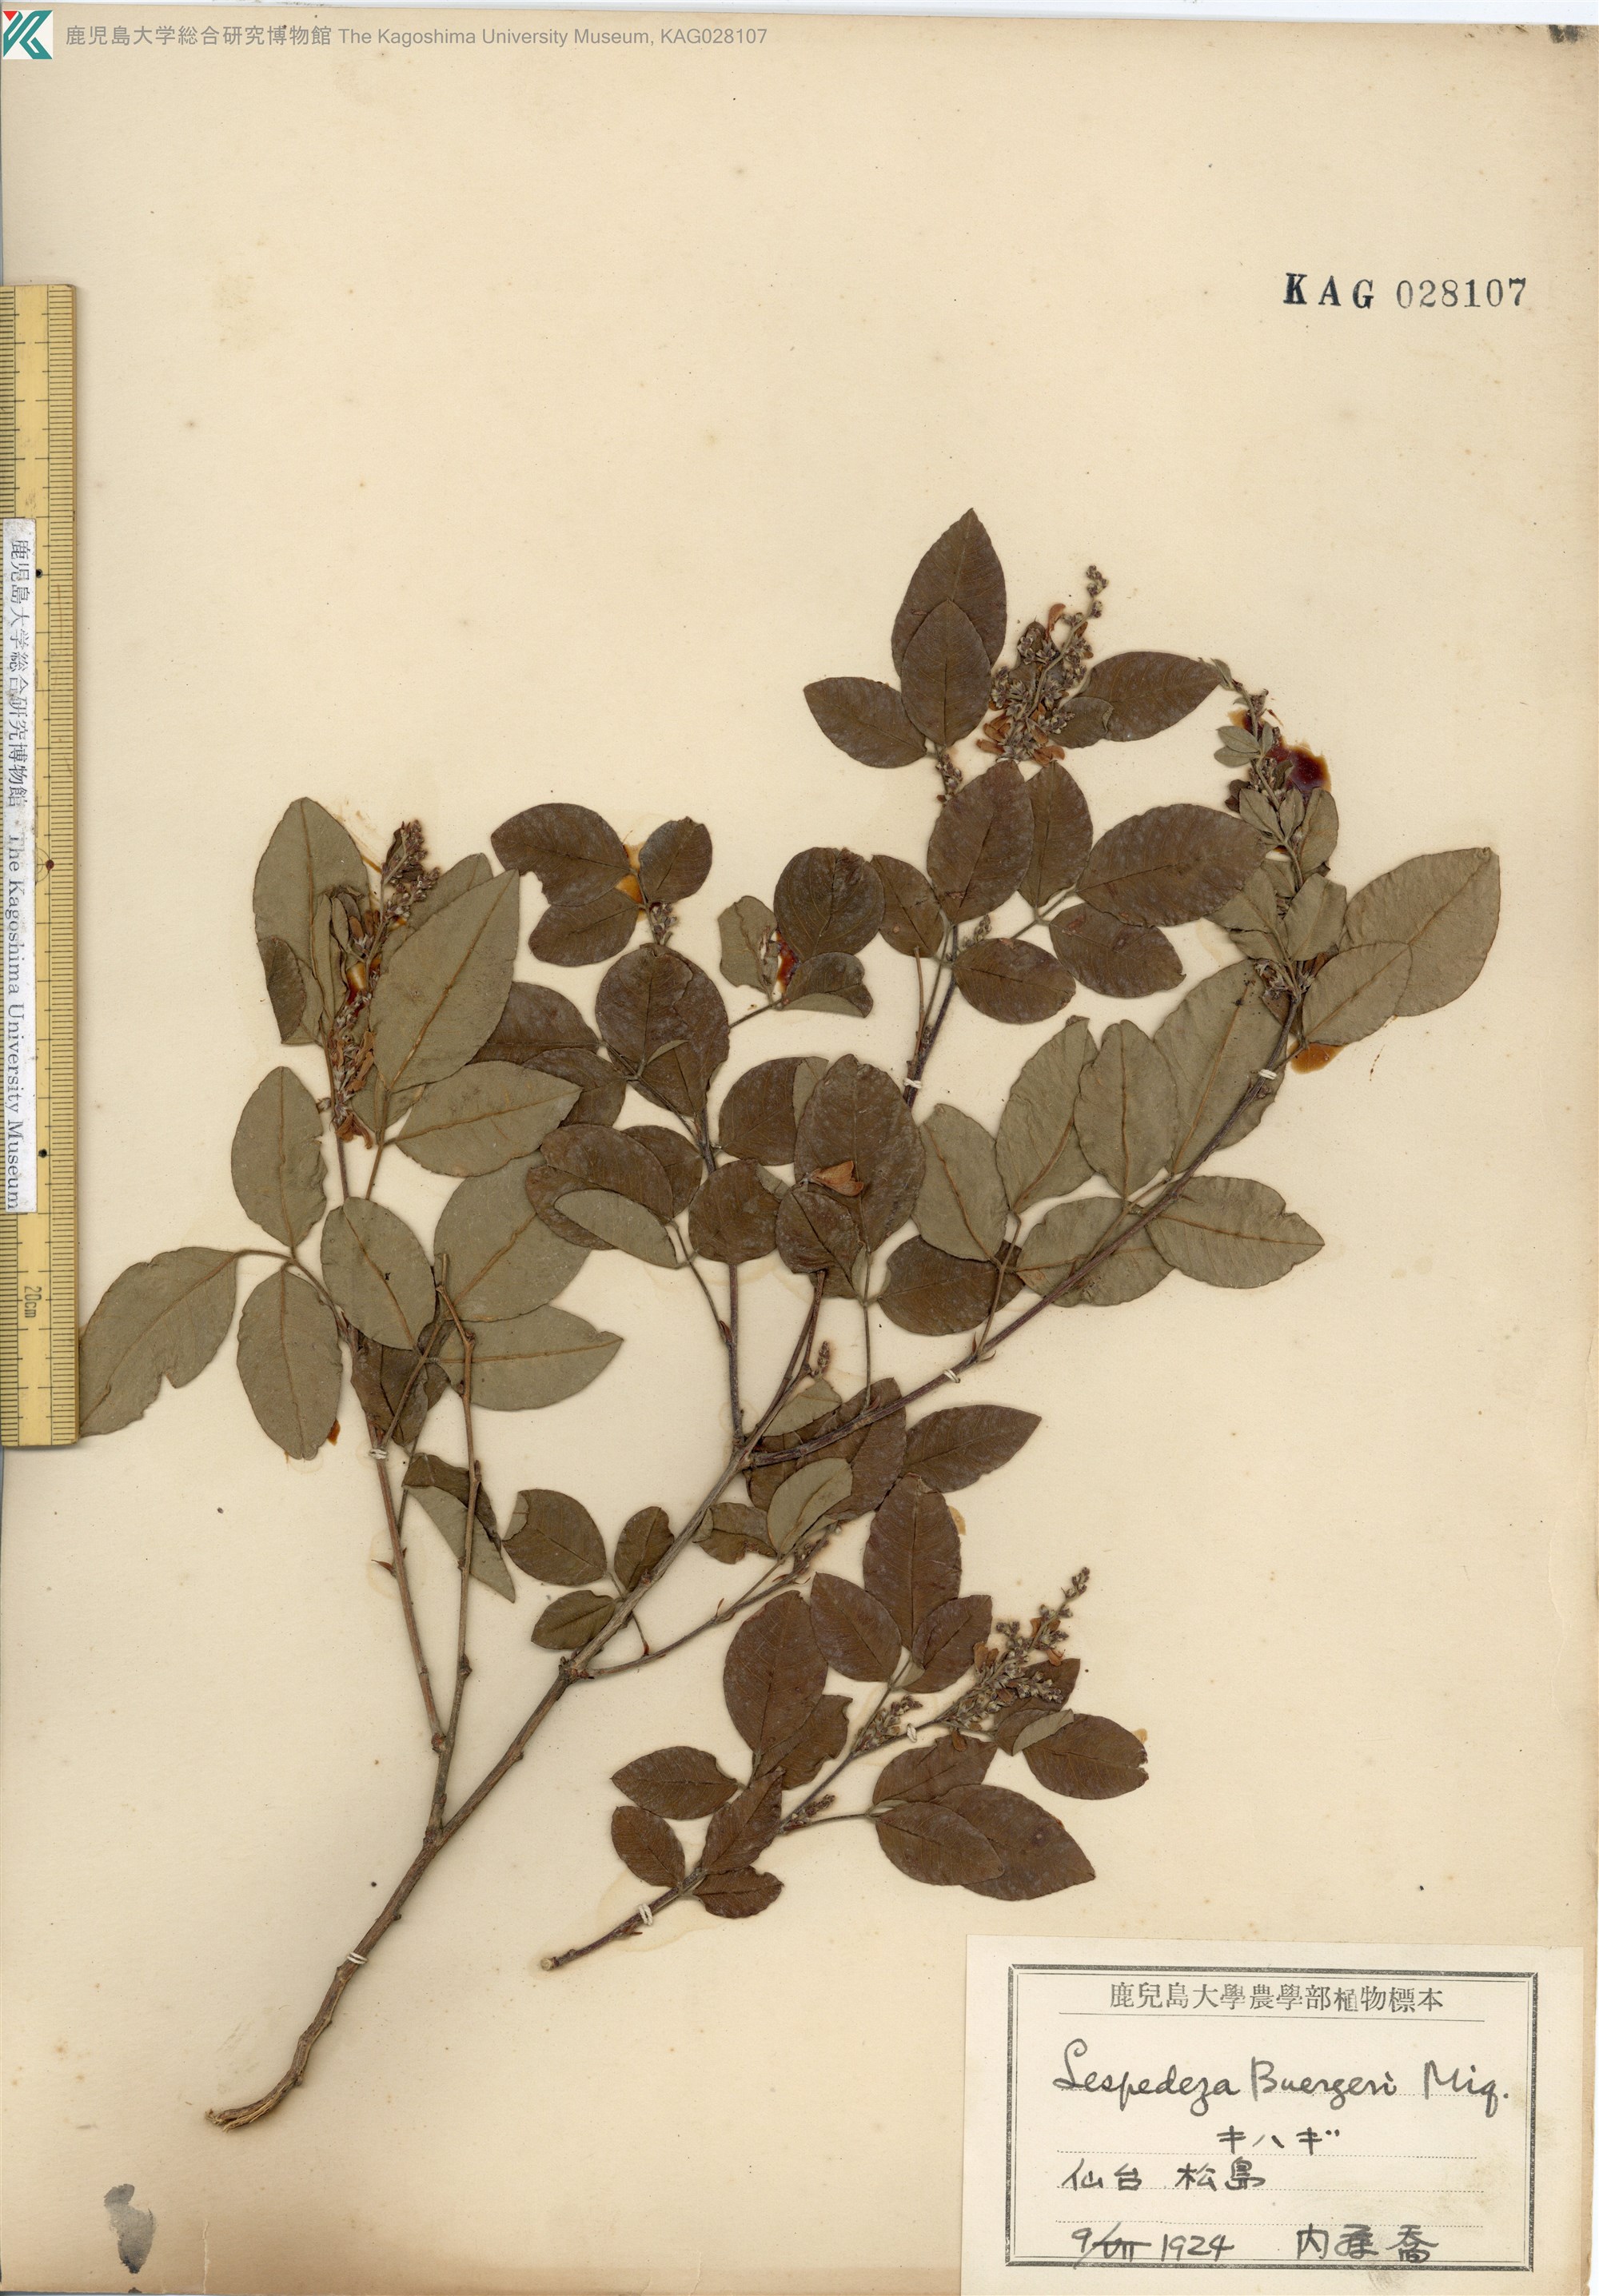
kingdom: Plantae
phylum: Tracheophyta
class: Magnoliopsida
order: Fabales
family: Fabaceae
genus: Lespedeza
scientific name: Lespedeza buergeri
